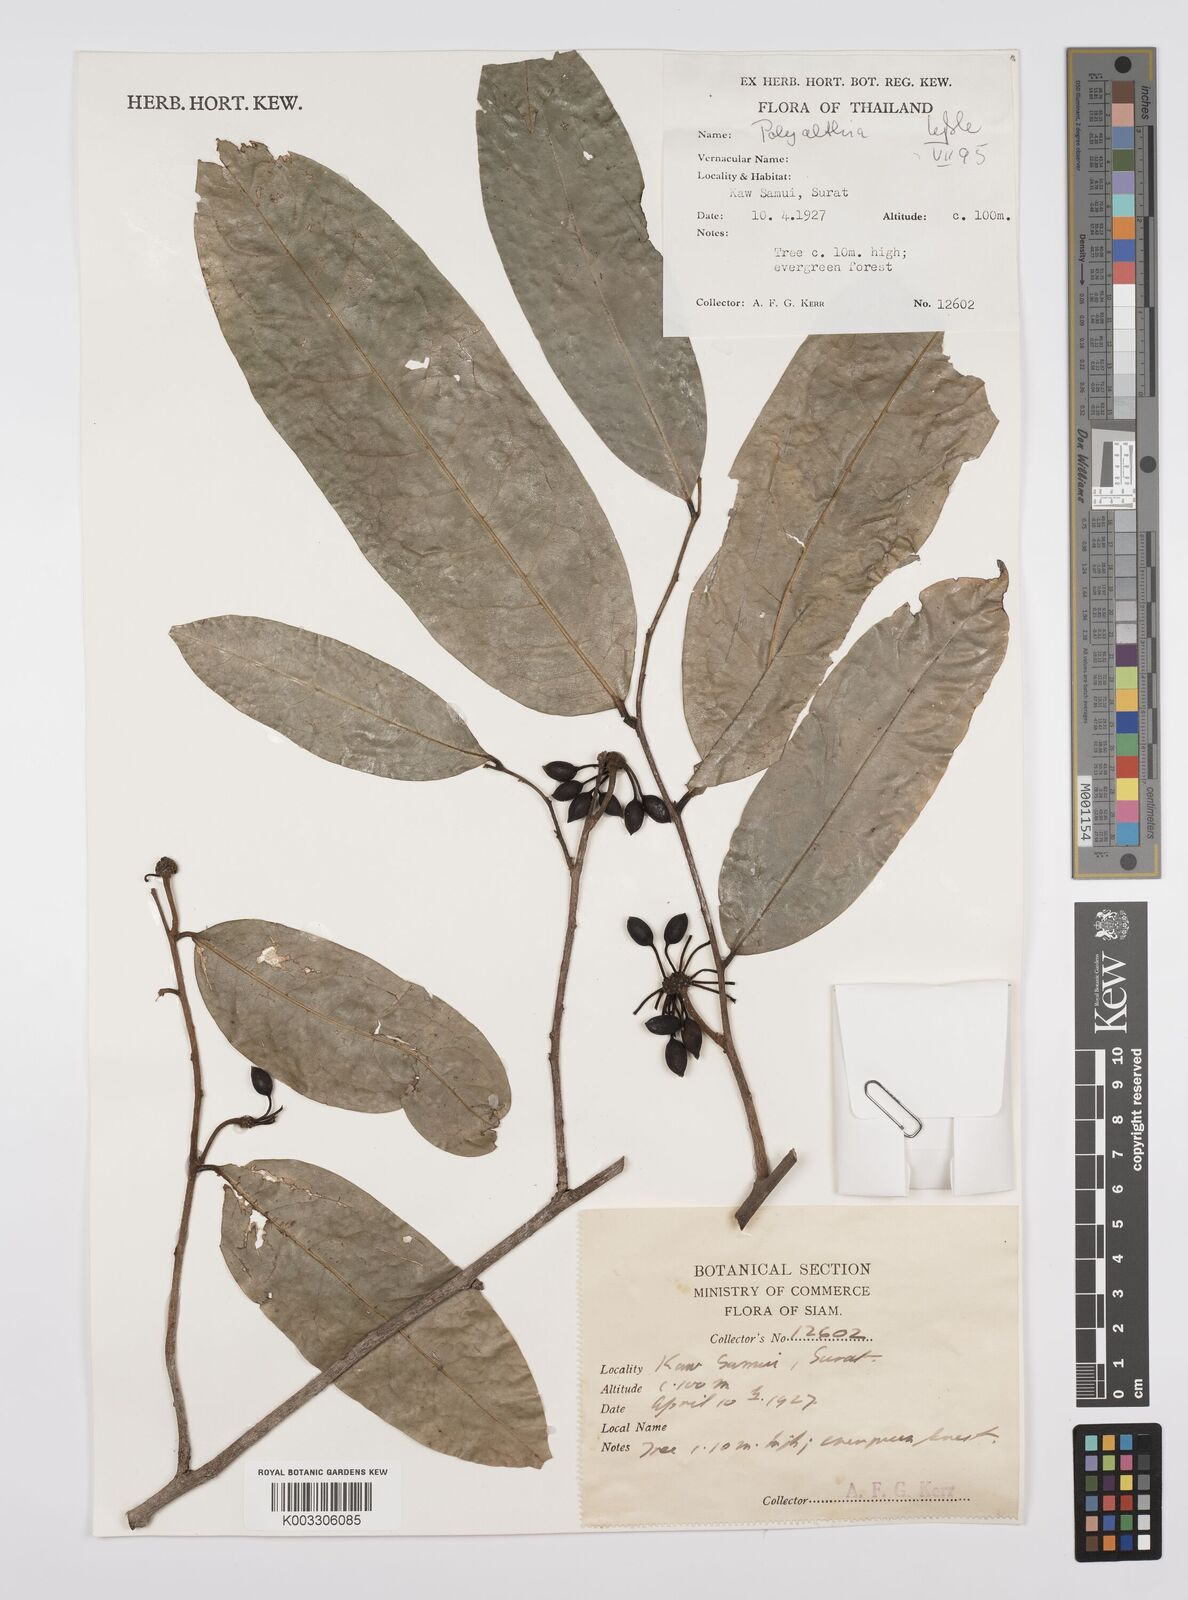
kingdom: Plantae
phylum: Tracheophyta
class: Magnoliopsida
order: Magnoliales
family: Annonaceae
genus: Huberantha
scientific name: Huberantha
